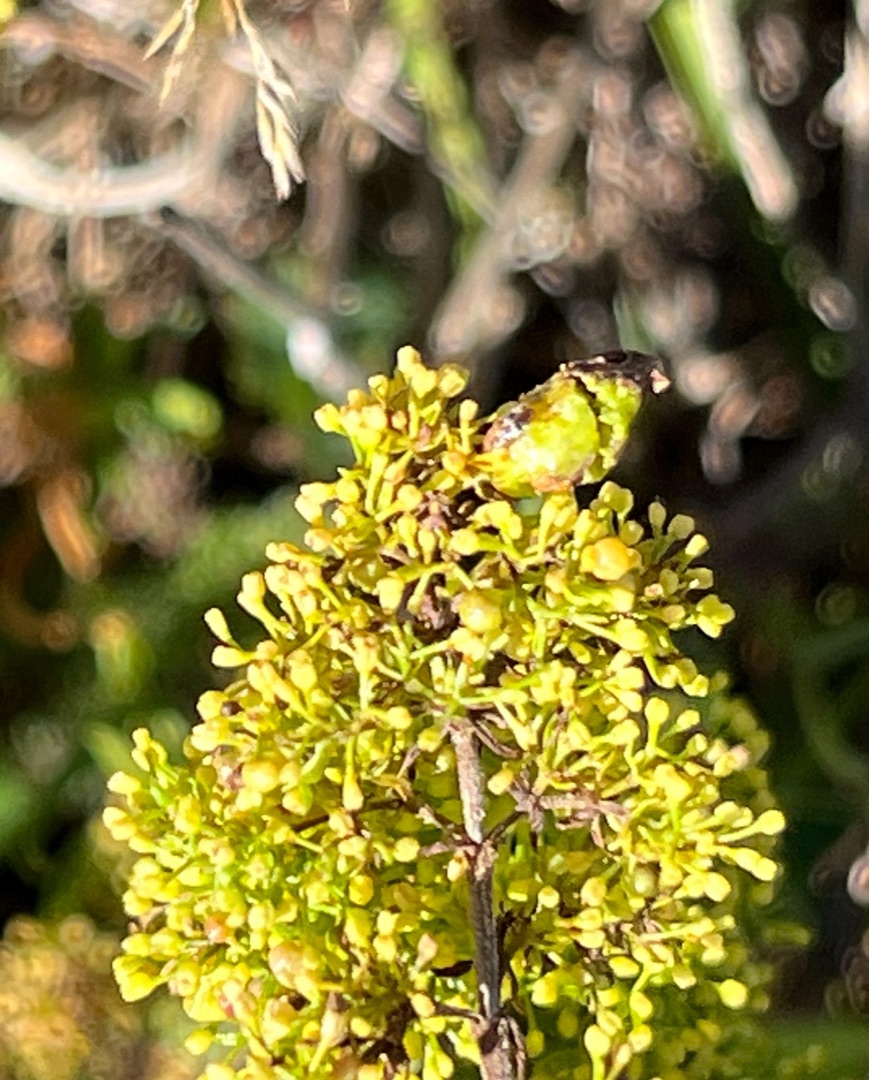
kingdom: Animalia
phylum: Arthropoda
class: Arachnida
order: Trombidiformes
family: Eriophyidae
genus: Aceria
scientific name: Aceria galiobia
